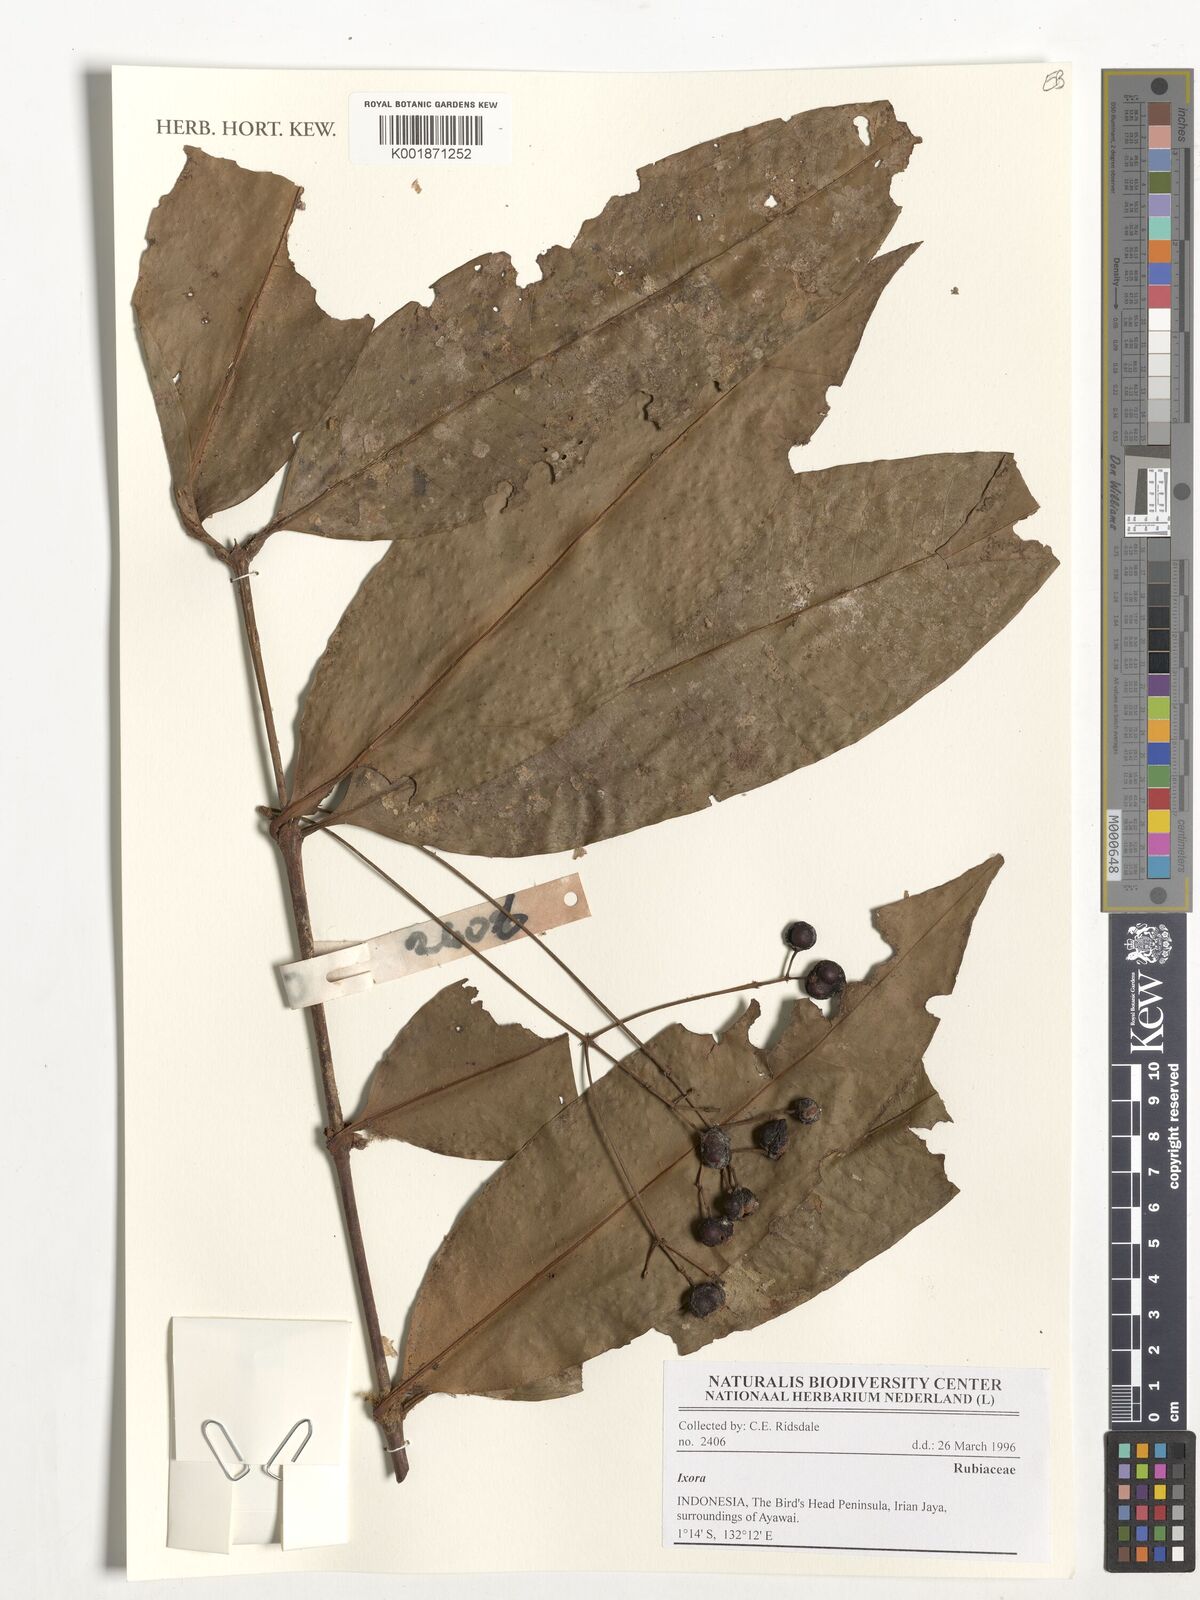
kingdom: Plantae
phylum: Tracheophyta
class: Magnoliopsida
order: Gentianales
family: Rubiaceae
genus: Ixora
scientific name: Ixora
